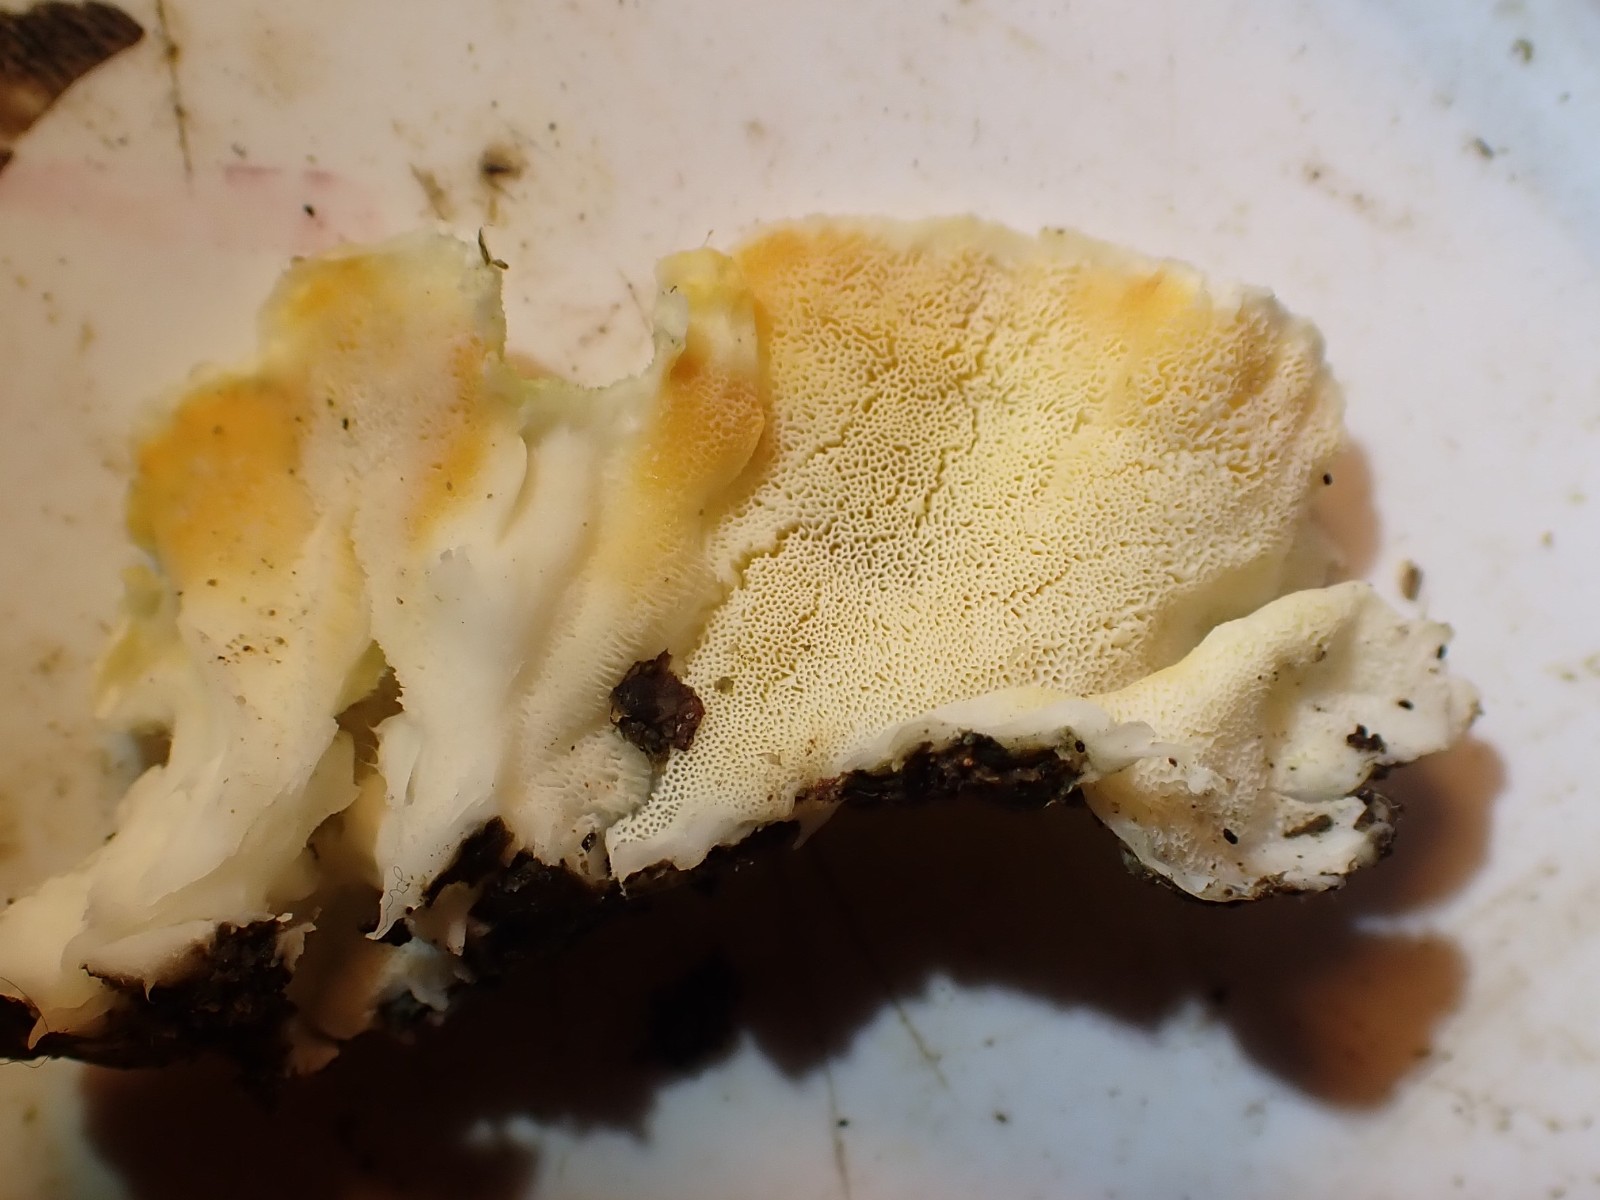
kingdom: Fungi
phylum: Basidiomycota
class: Agaricomycetes
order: Polyporales
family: Incrustoporiaceae
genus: Skeletocutis
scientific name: Skeletocutis amorpha
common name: orange krystalporesvamp
